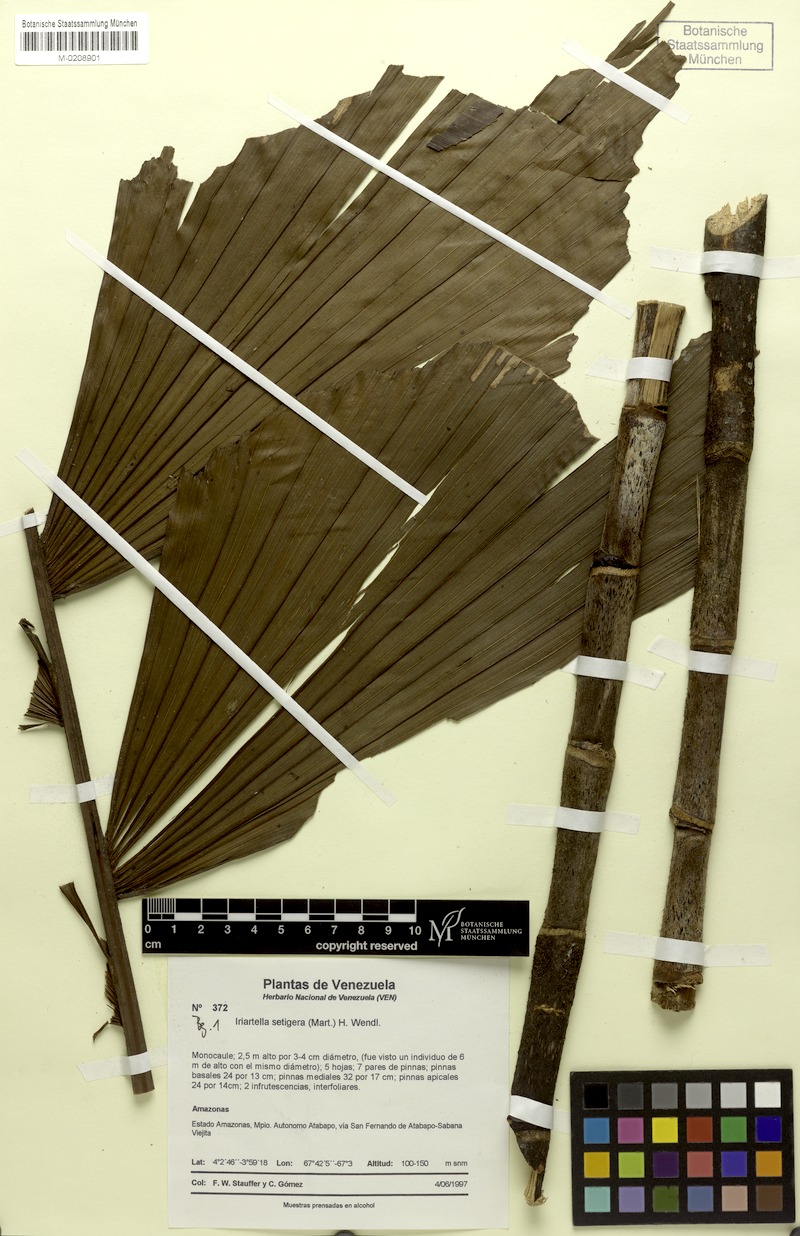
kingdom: Plantae
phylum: Tracheophyta
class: Liliopsida
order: Arecales
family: Arecaceae
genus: Iriartella
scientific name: Iriartella setigera
